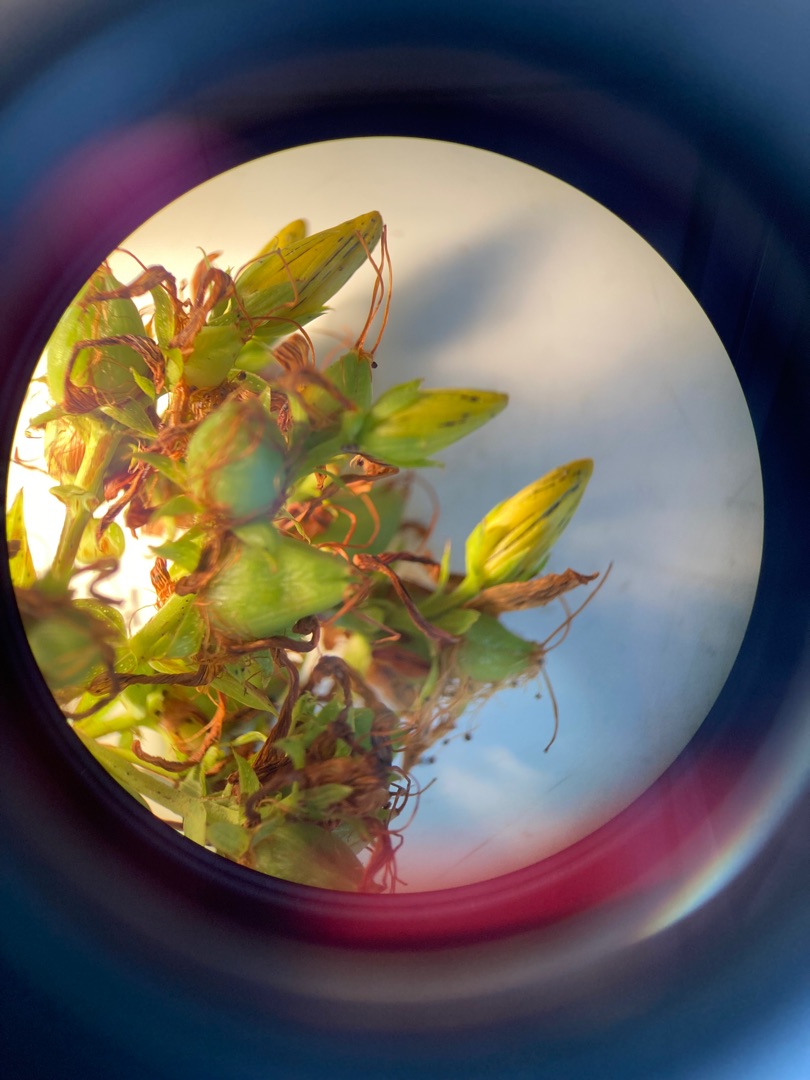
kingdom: Plantae
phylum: Tracheophyta
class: Magnoliopsida
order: Malpighiales
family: Hypericaceae
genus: Hypericum
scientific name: Hypericum perforatum
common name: Prikbladet perikon
